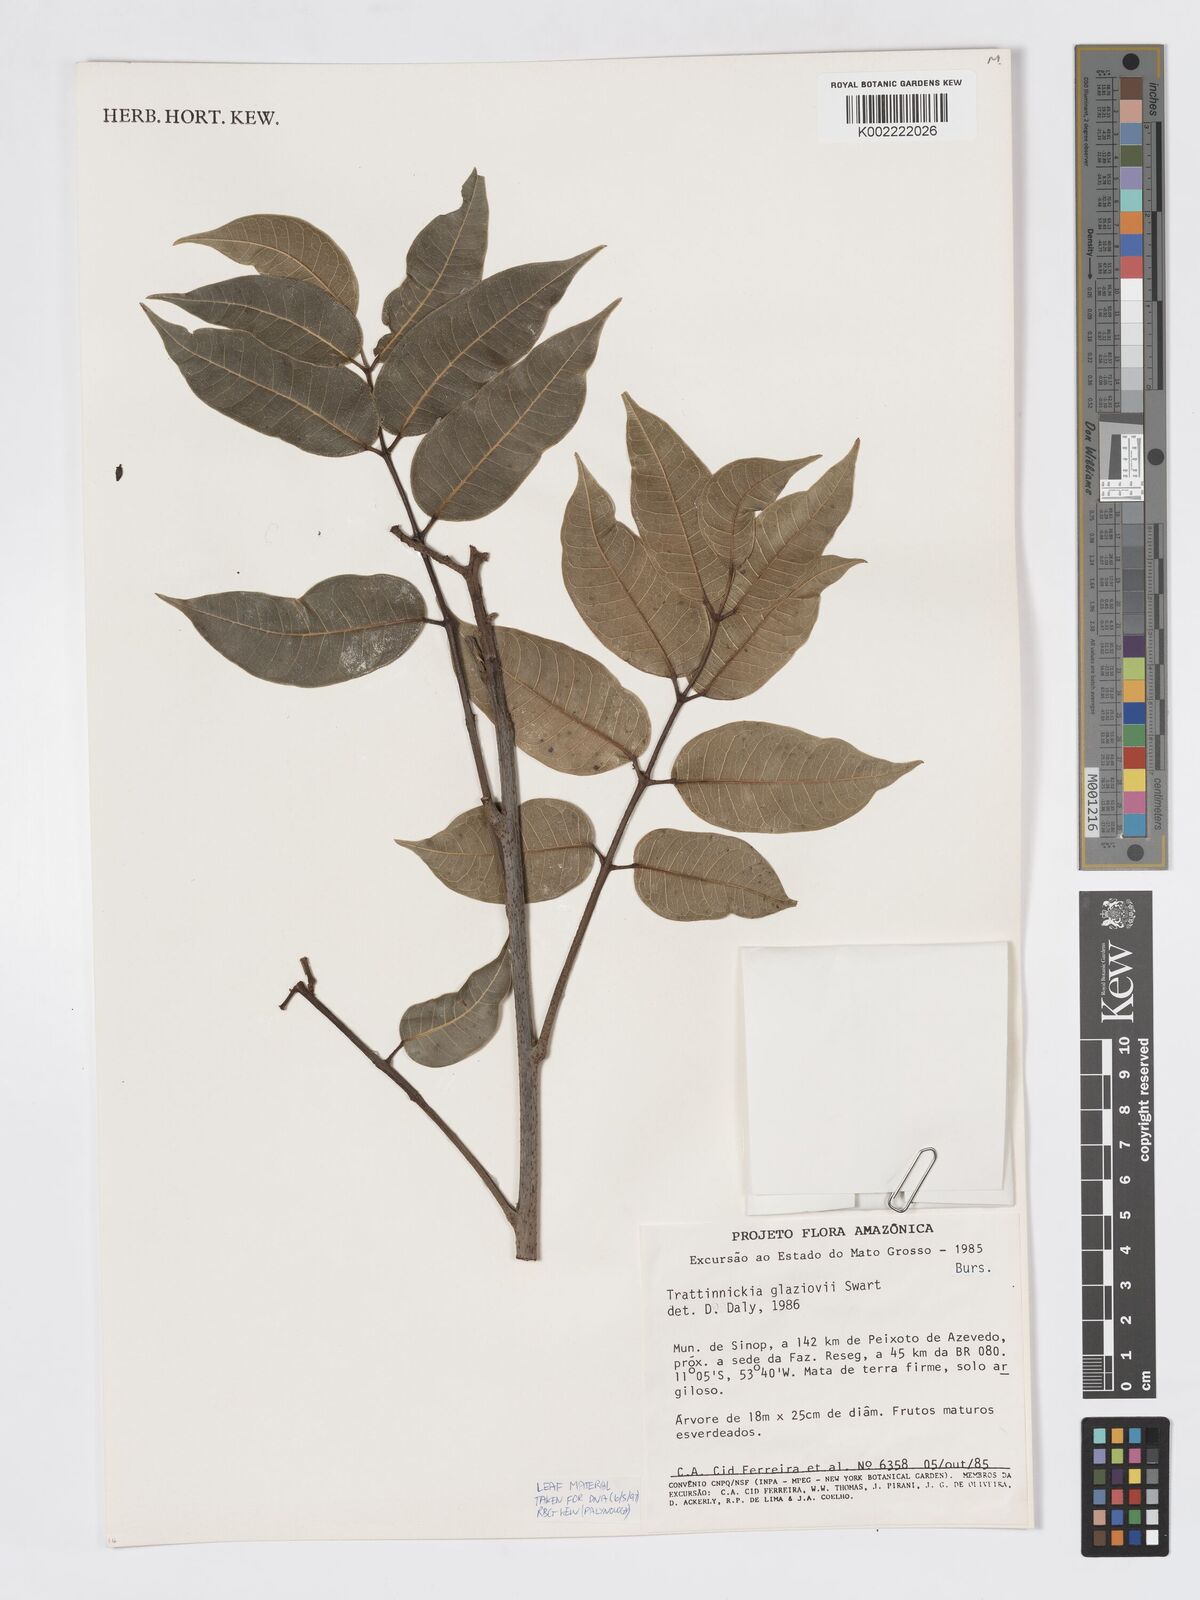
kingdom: Plantae
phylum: Tracheophyta
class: Magnoliopsida
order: Sapindales
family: Burseraceae
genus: Trattinnickia
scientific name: Trattinnickia glaziovii
